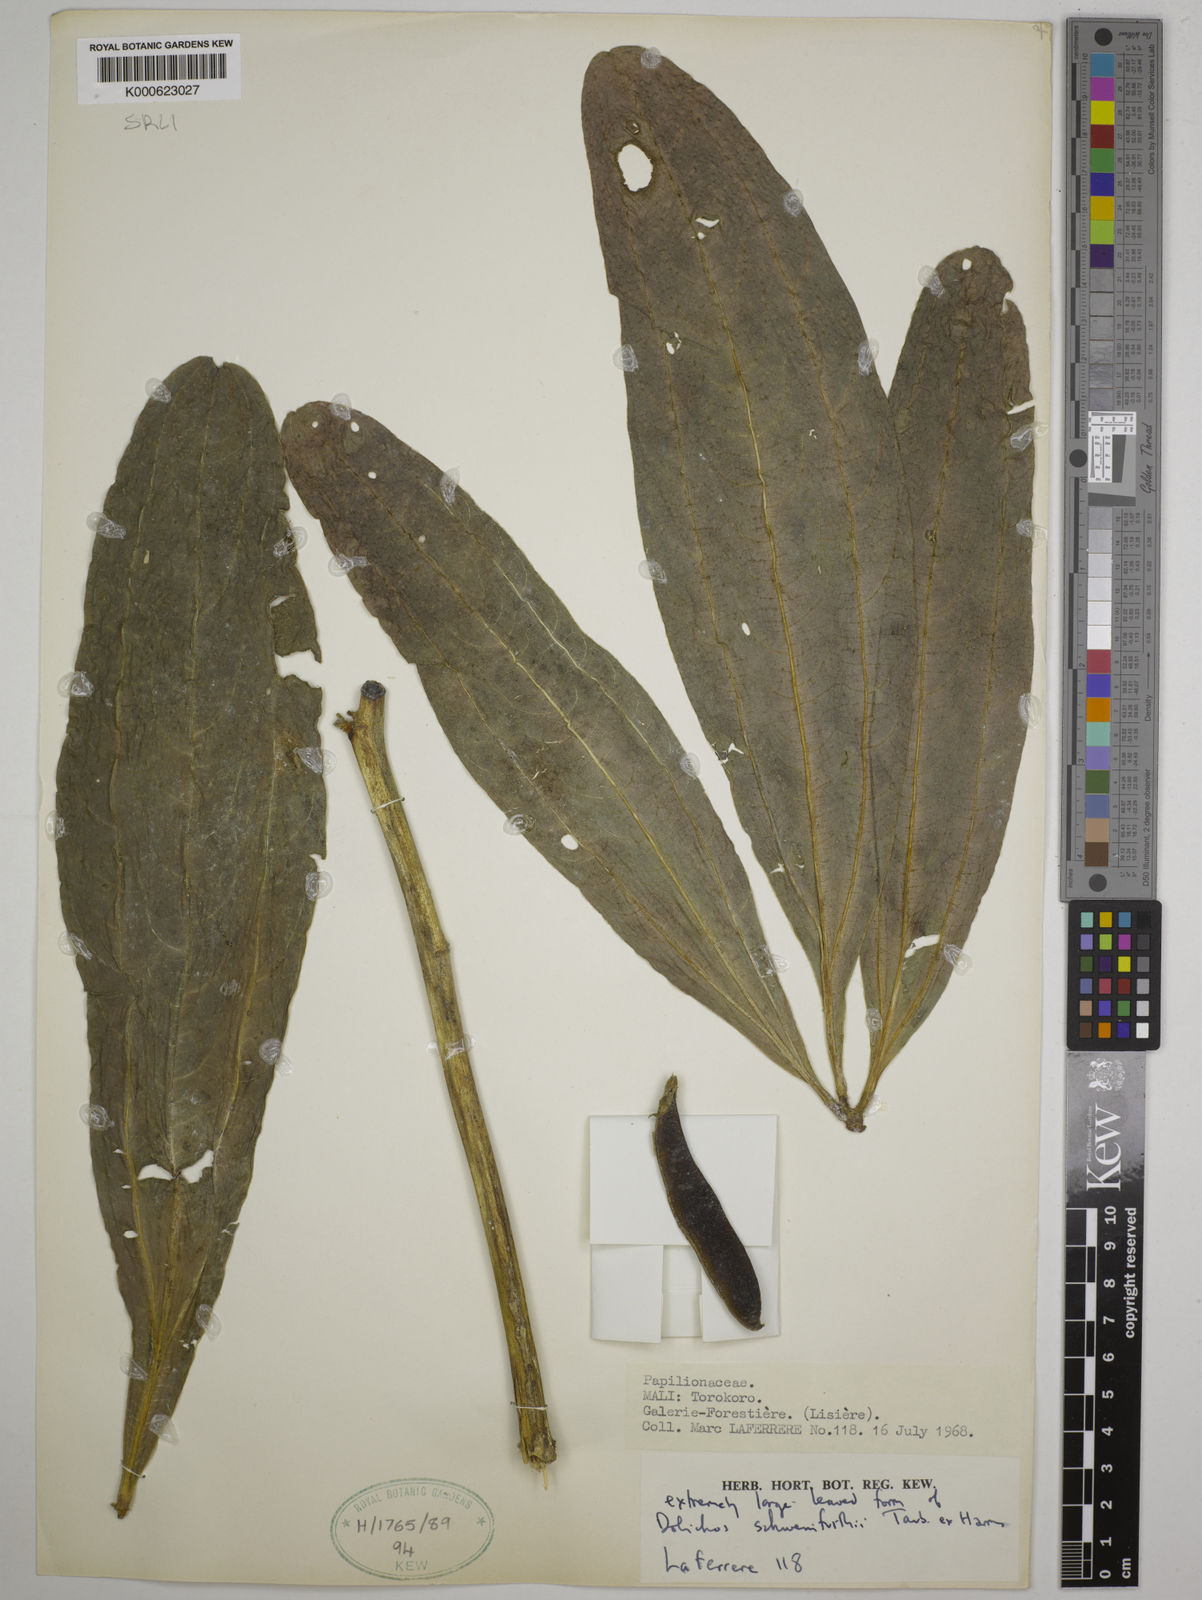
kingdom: Plantae
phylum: Tracheophyta
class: Magnoliopsida
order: Fabales
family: Fabaceae
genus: Dolichos
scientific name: Dolichos
